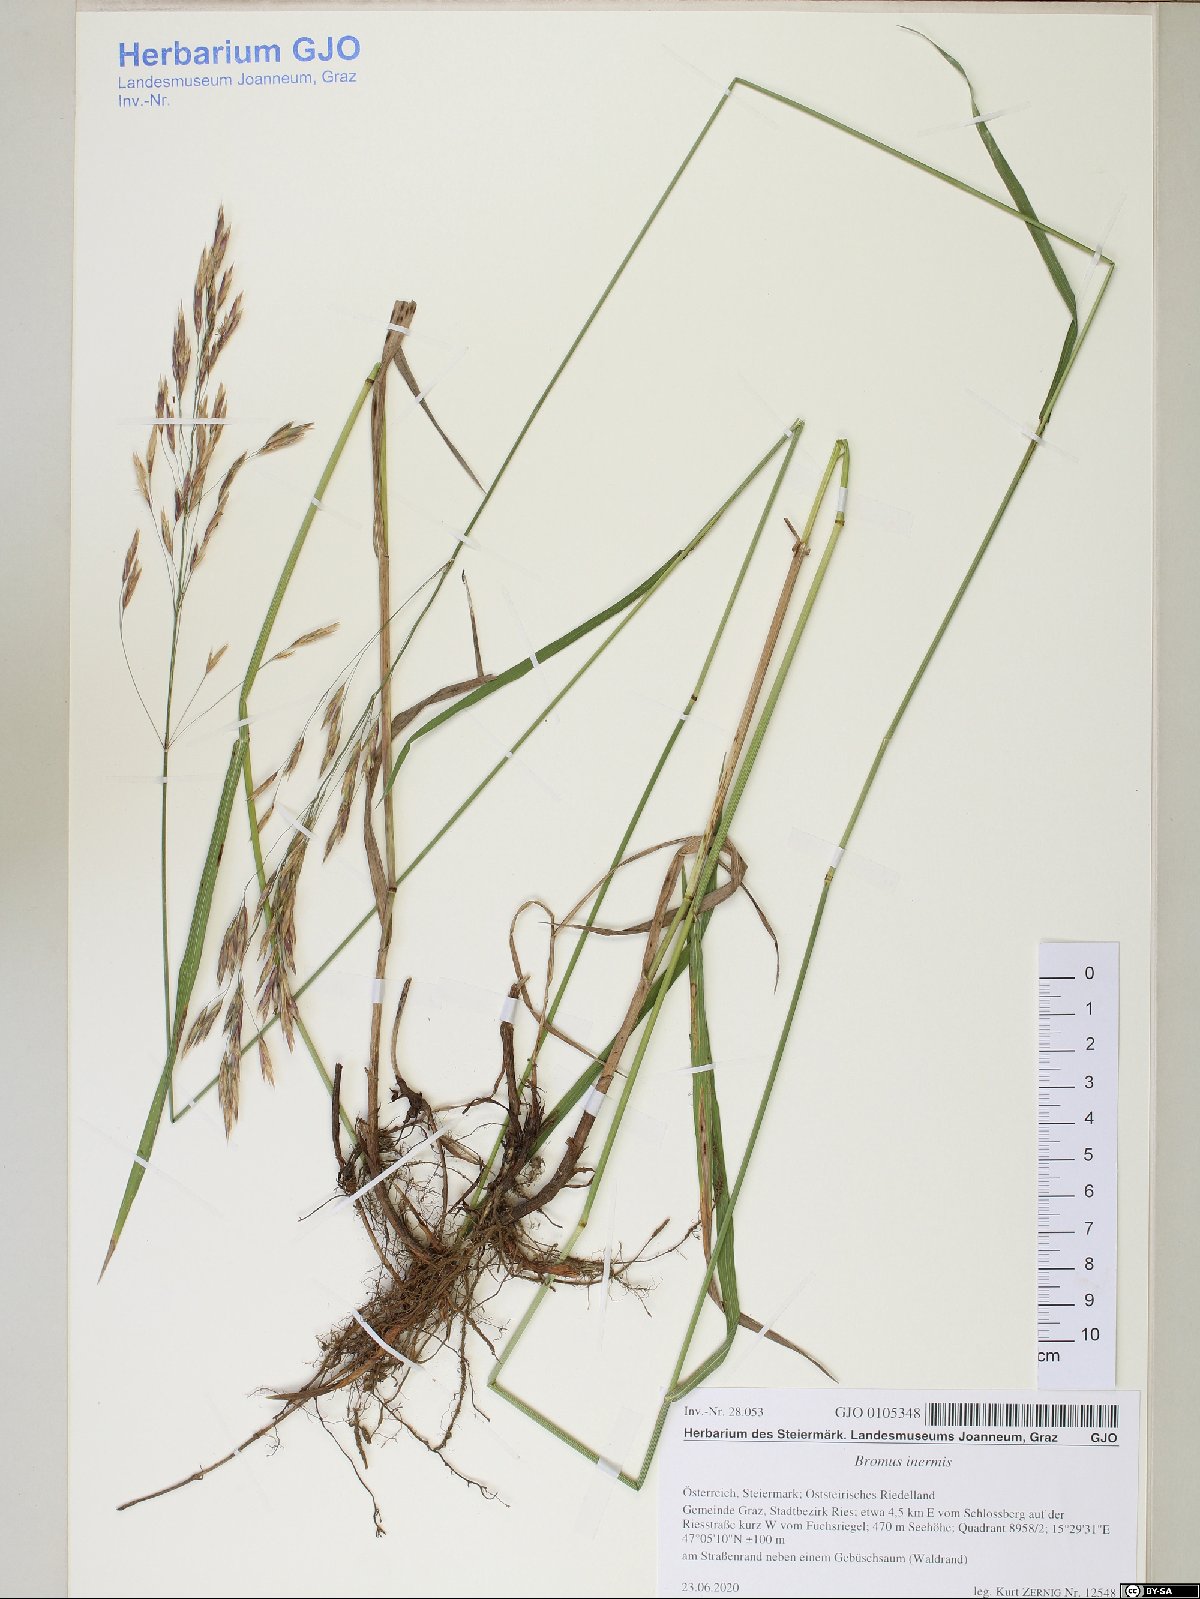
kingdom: Plantae
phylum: Tracheophyta
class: Liliopsida
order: Poales
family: Poaceae
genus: Bromus
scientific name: Bromus inermis
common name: Smooth brome
